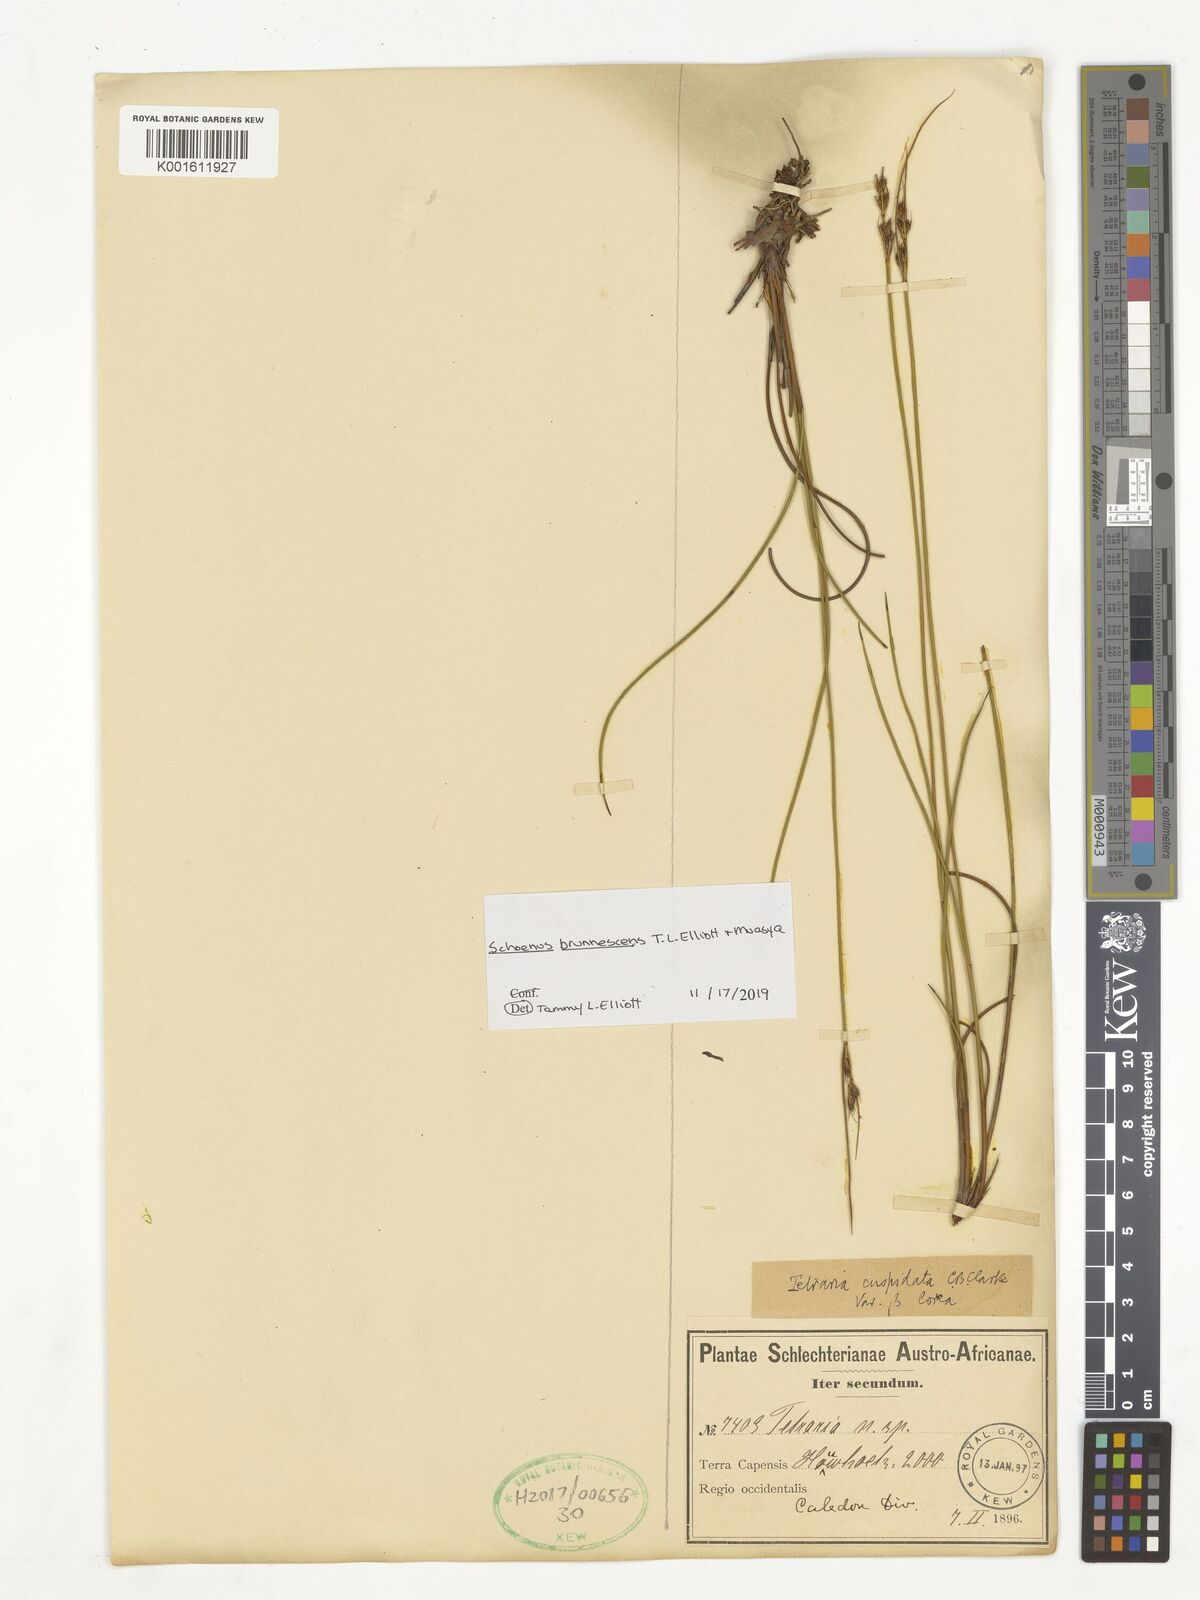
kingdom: Plantae
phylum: Tracheophyta
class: Liliopsida
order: Poales
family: Cyperaceae
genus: Schoenus
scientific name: Schoenus
